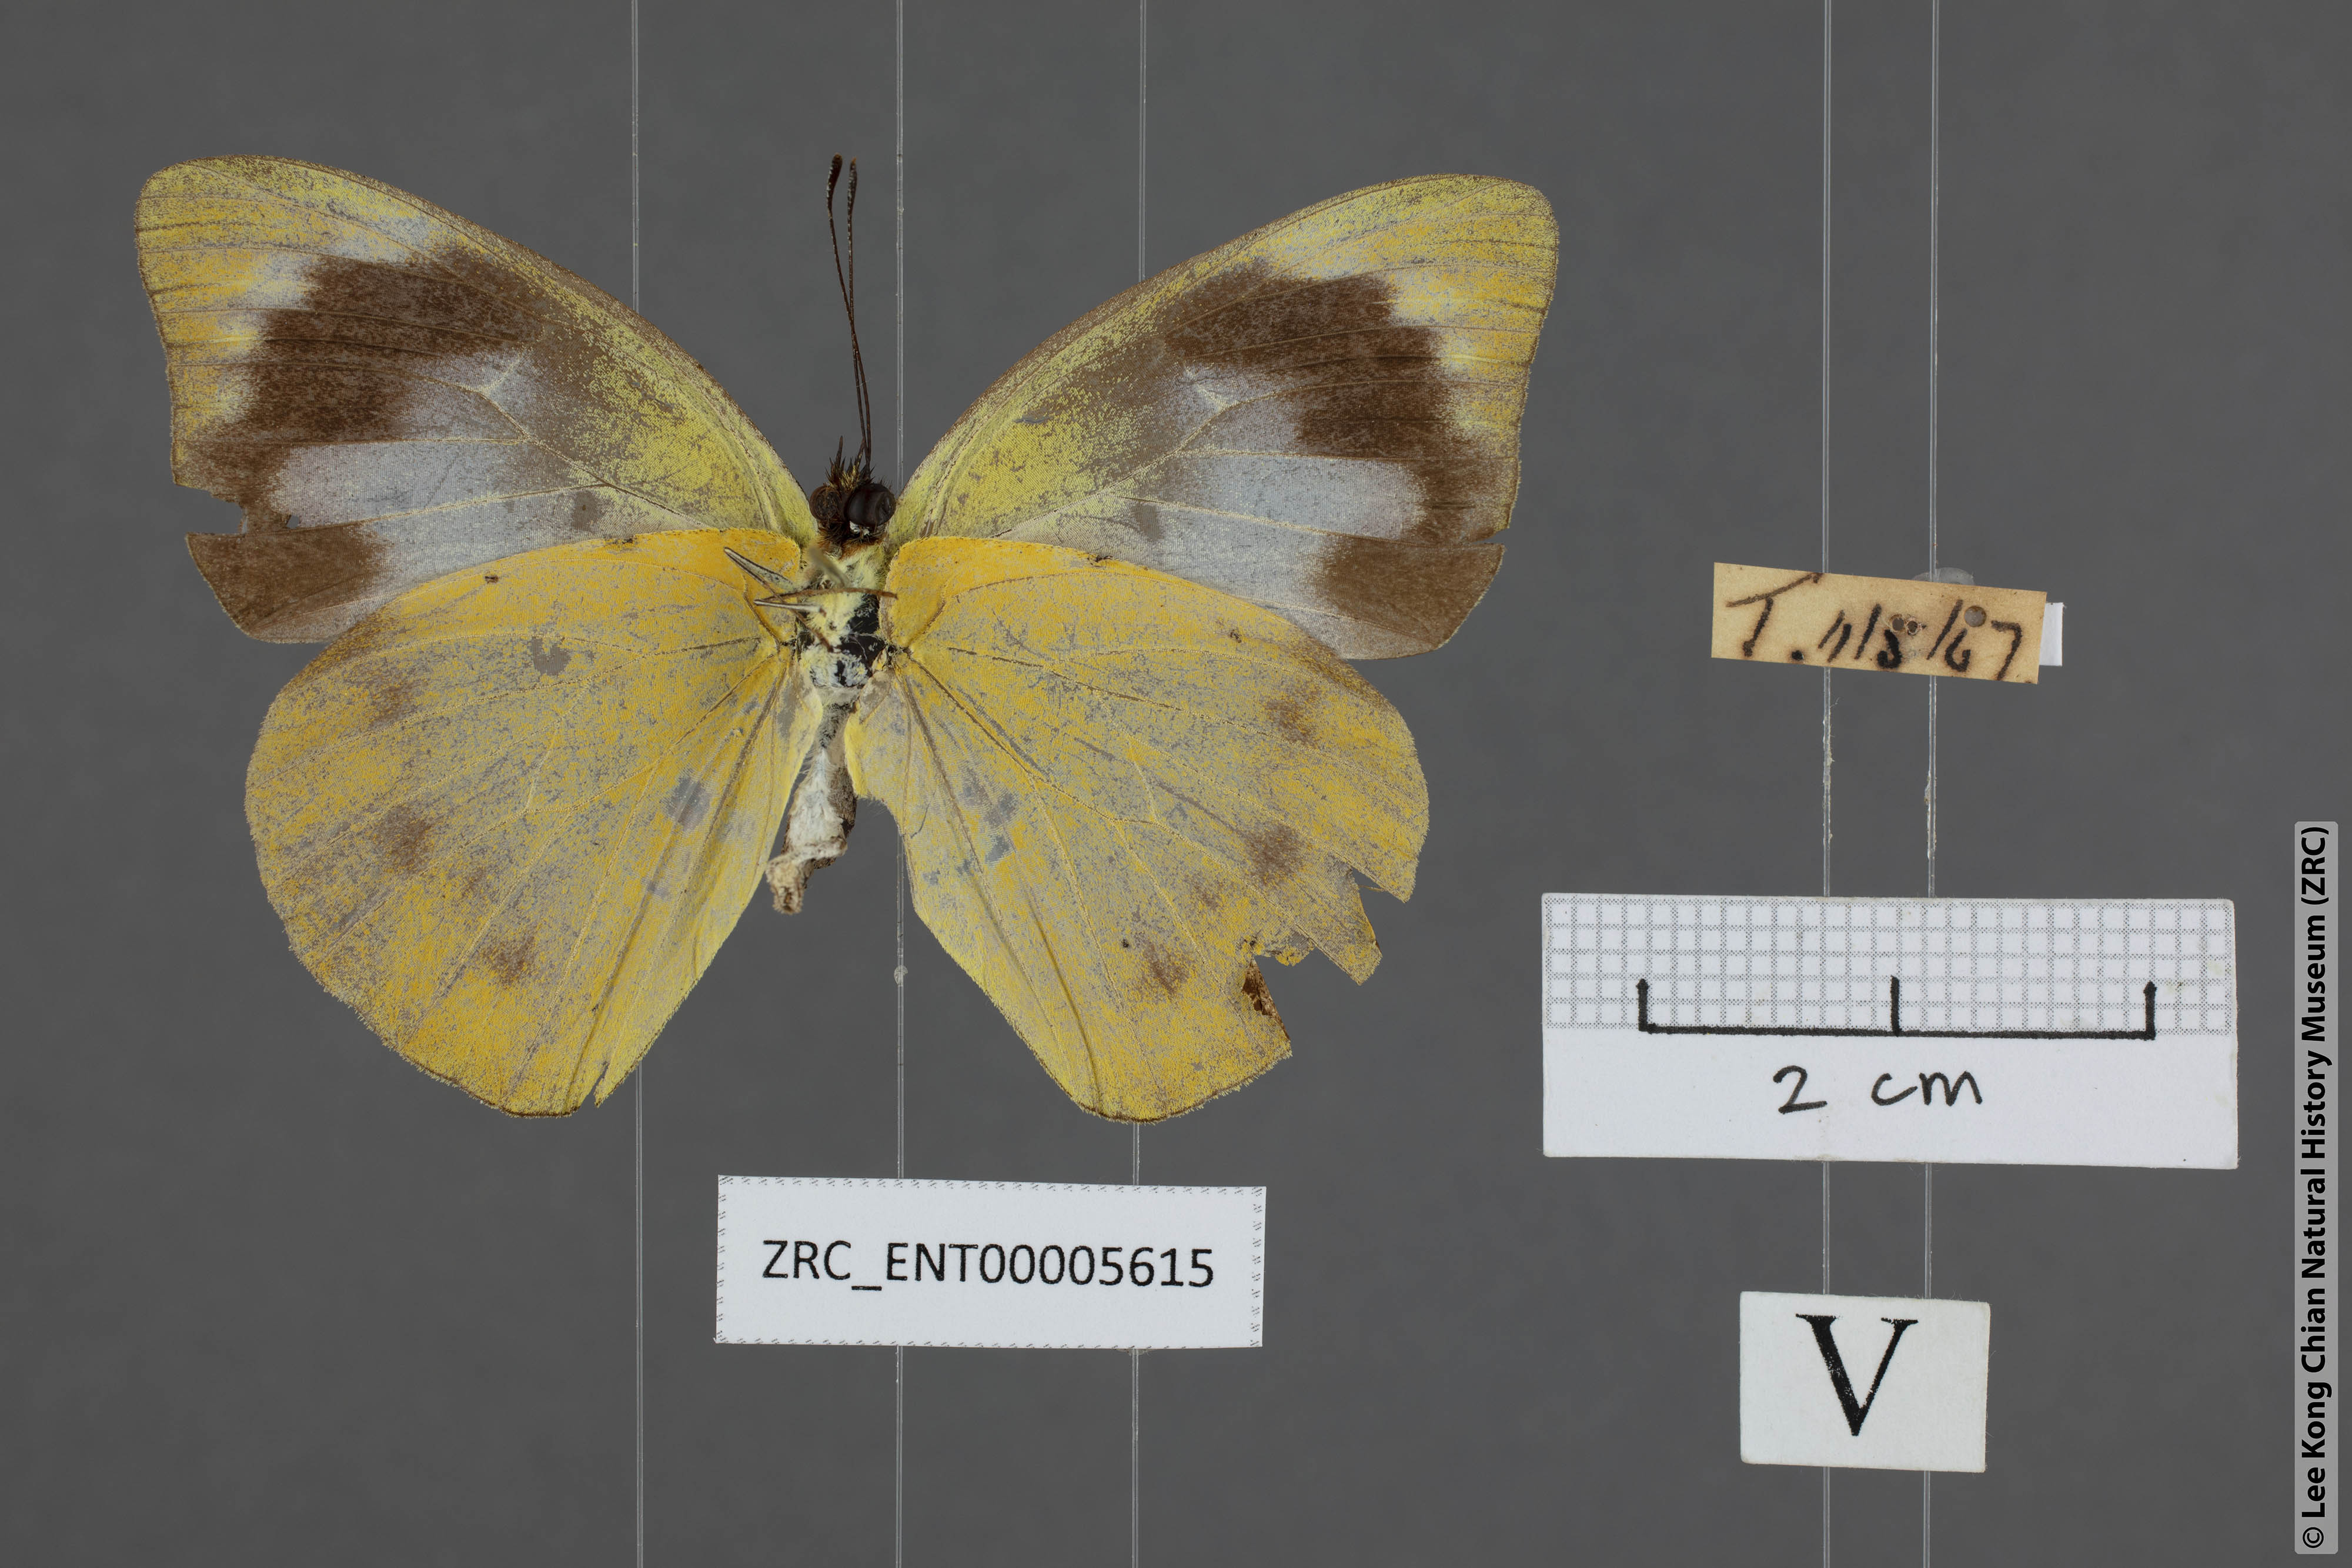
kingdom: Animalia
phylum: Arthropoda
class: Insecta
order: Lepidoptera
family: Pieridae
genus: Appias
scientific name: Appias paulina
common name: Ceylon lesser albatross
